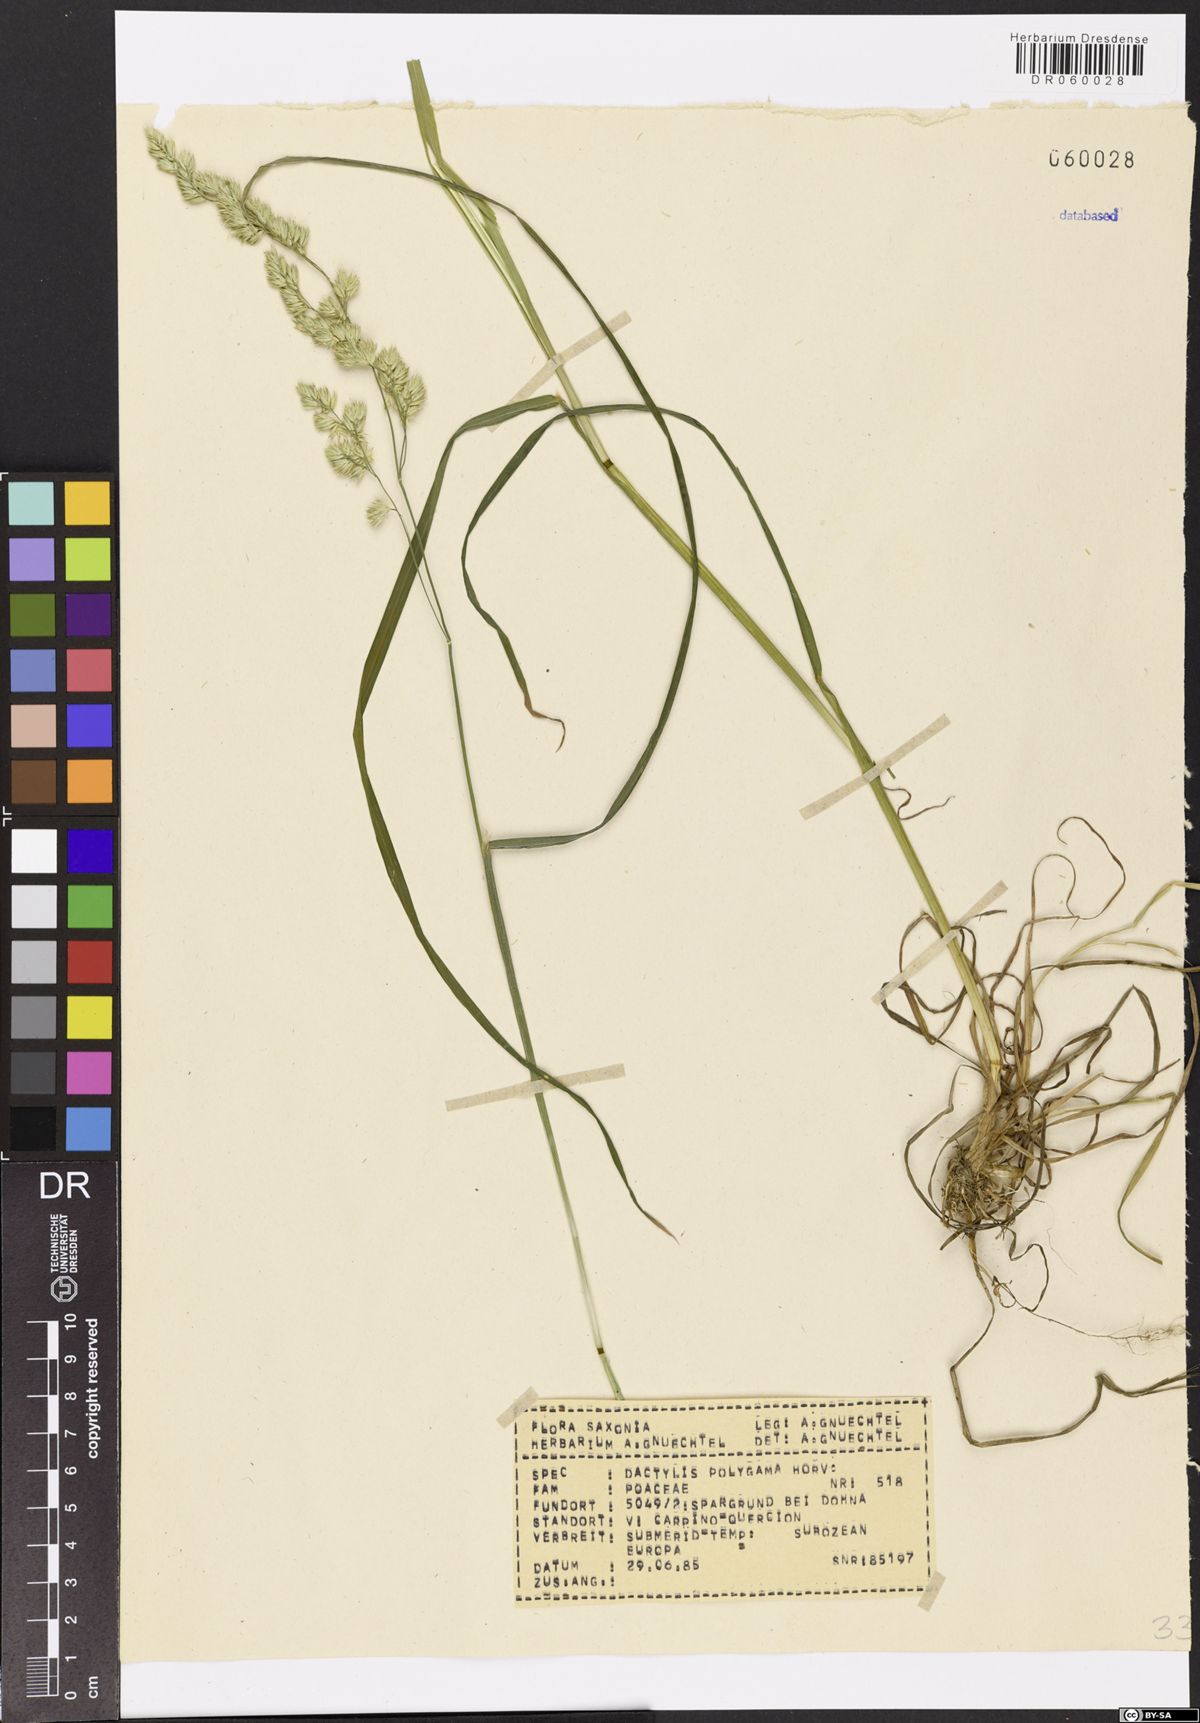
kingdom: Plantae
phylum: Tracheophyta
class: Liliopsida
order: Poales
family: Poaceae
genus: Dactylis
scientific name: Dactylis glomerata
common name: Orchardgrass
